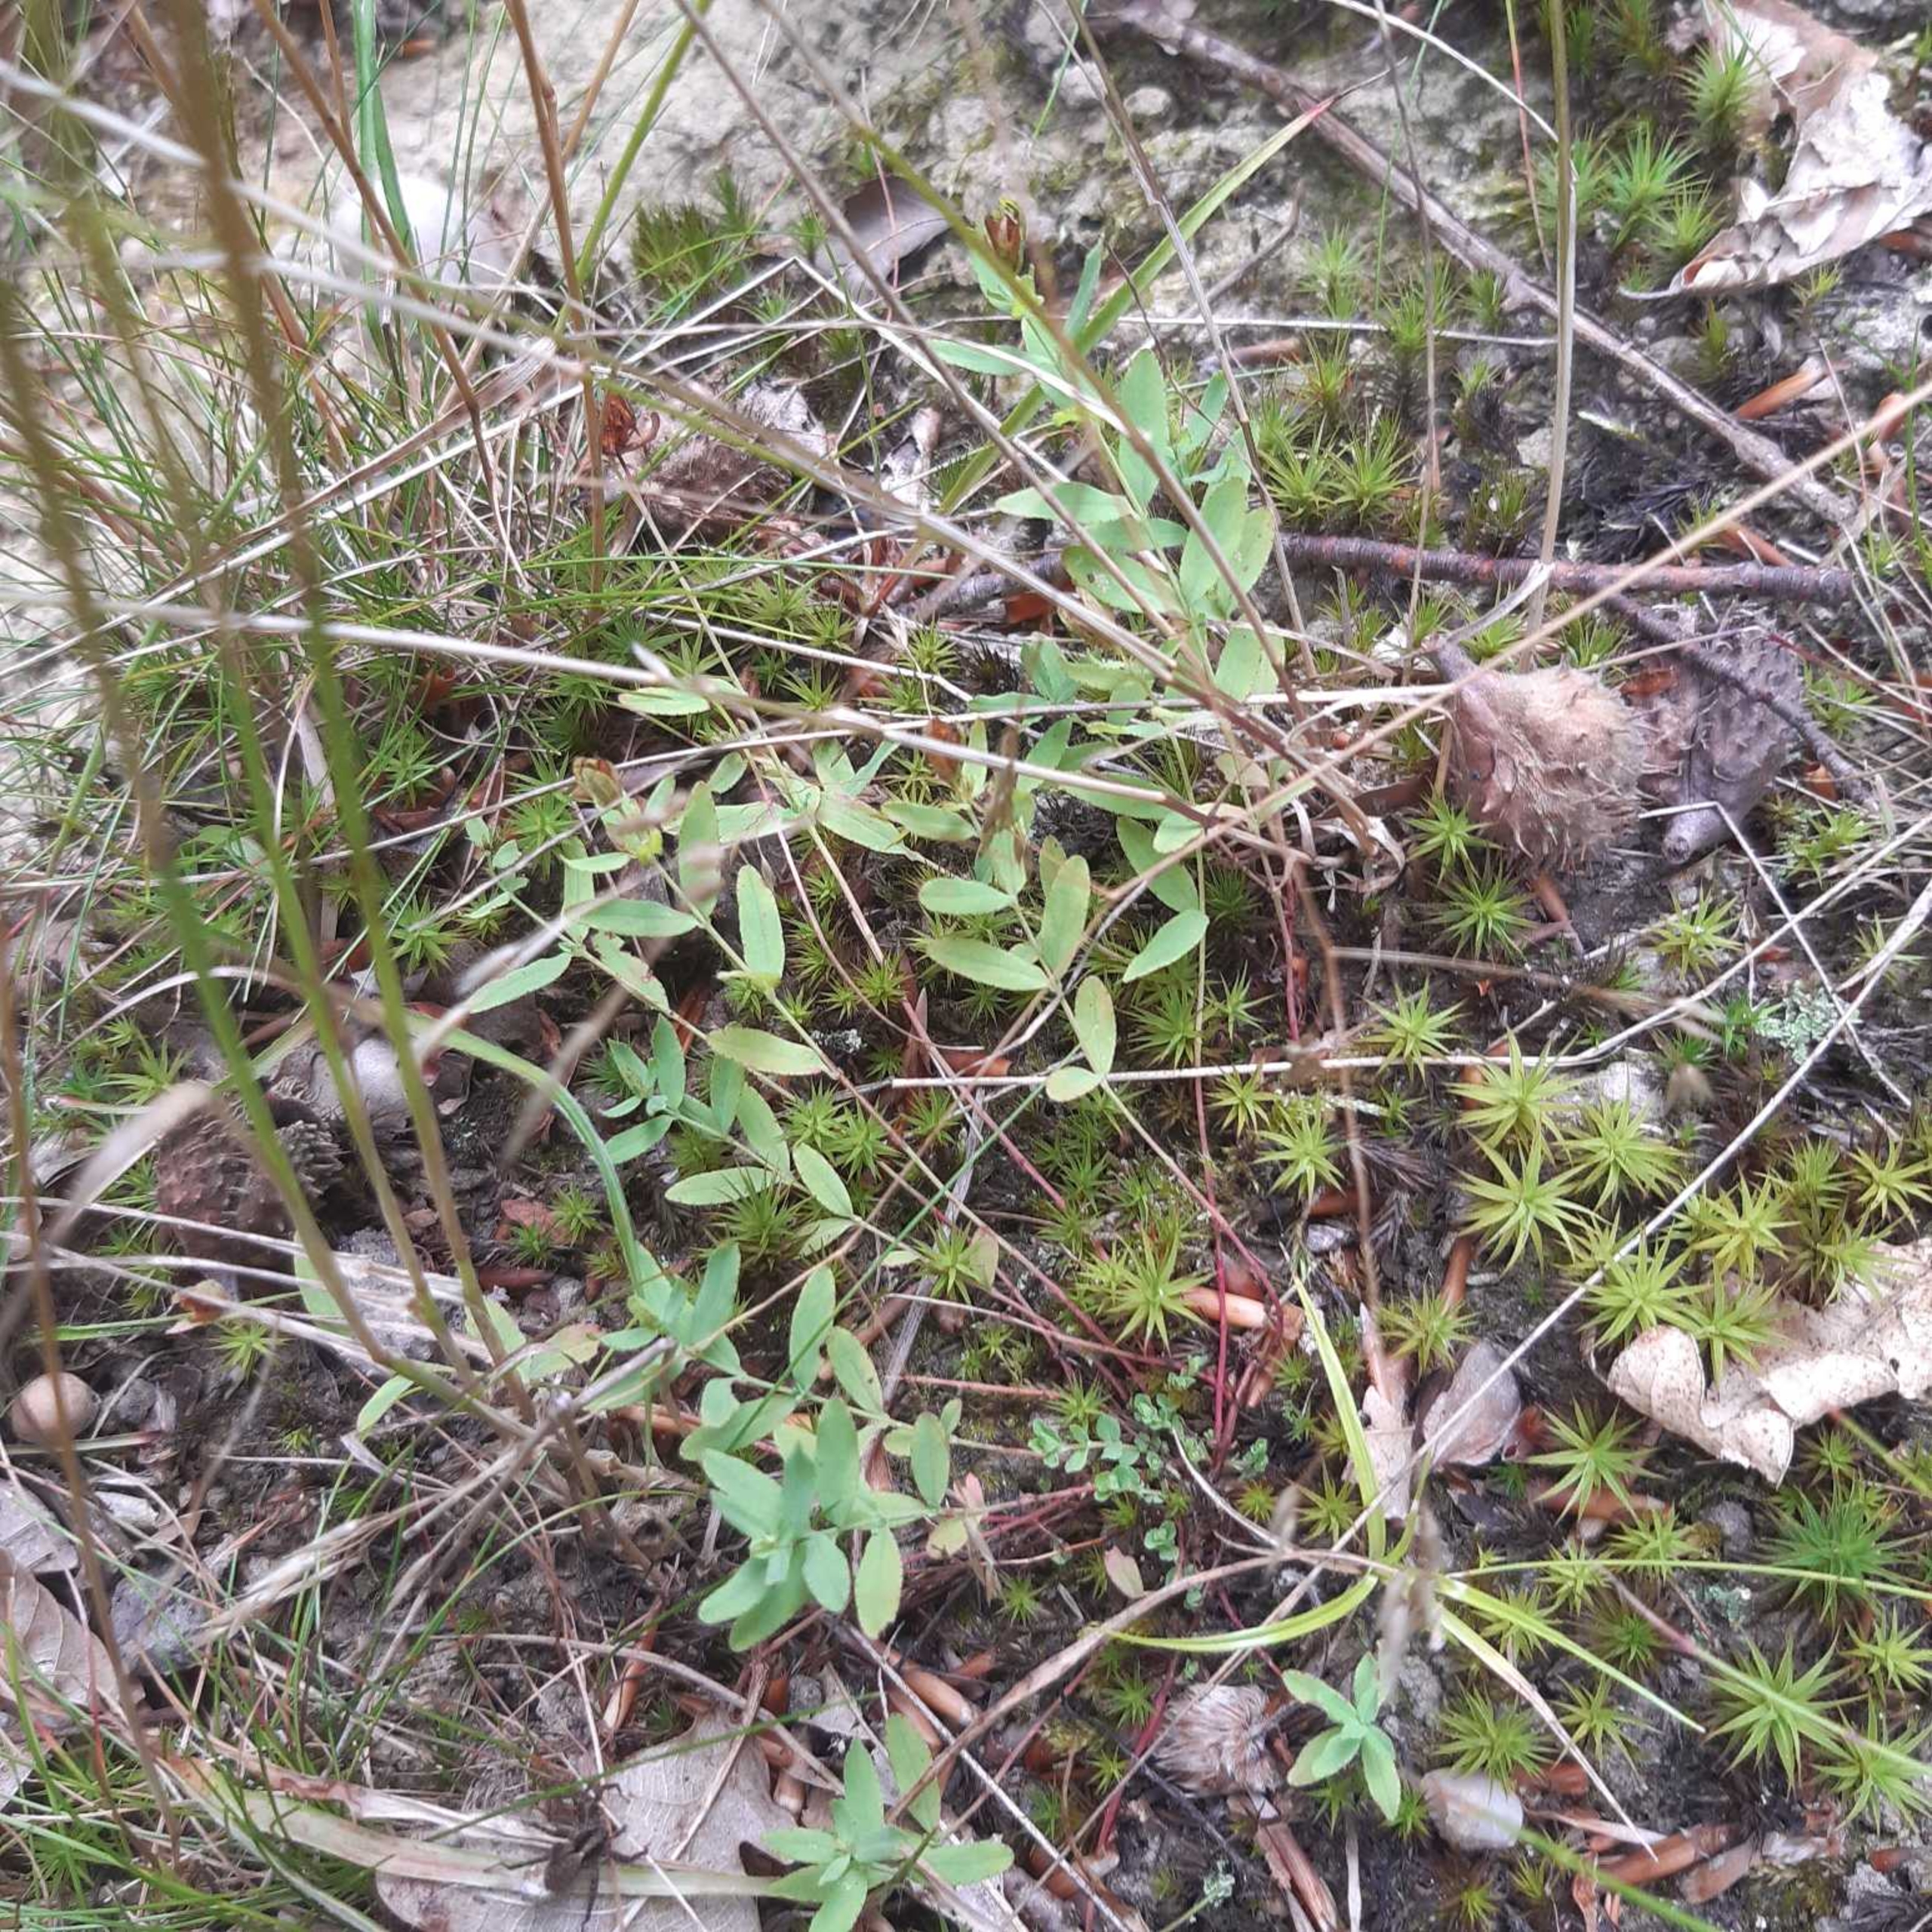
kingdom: Plantae
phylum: Tracheophyta
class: Magnoliopsida
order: Malpighiales
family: Hypericaceae
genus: Hypericum
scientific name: Hypericum humifusum
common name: Dværg-perikon
